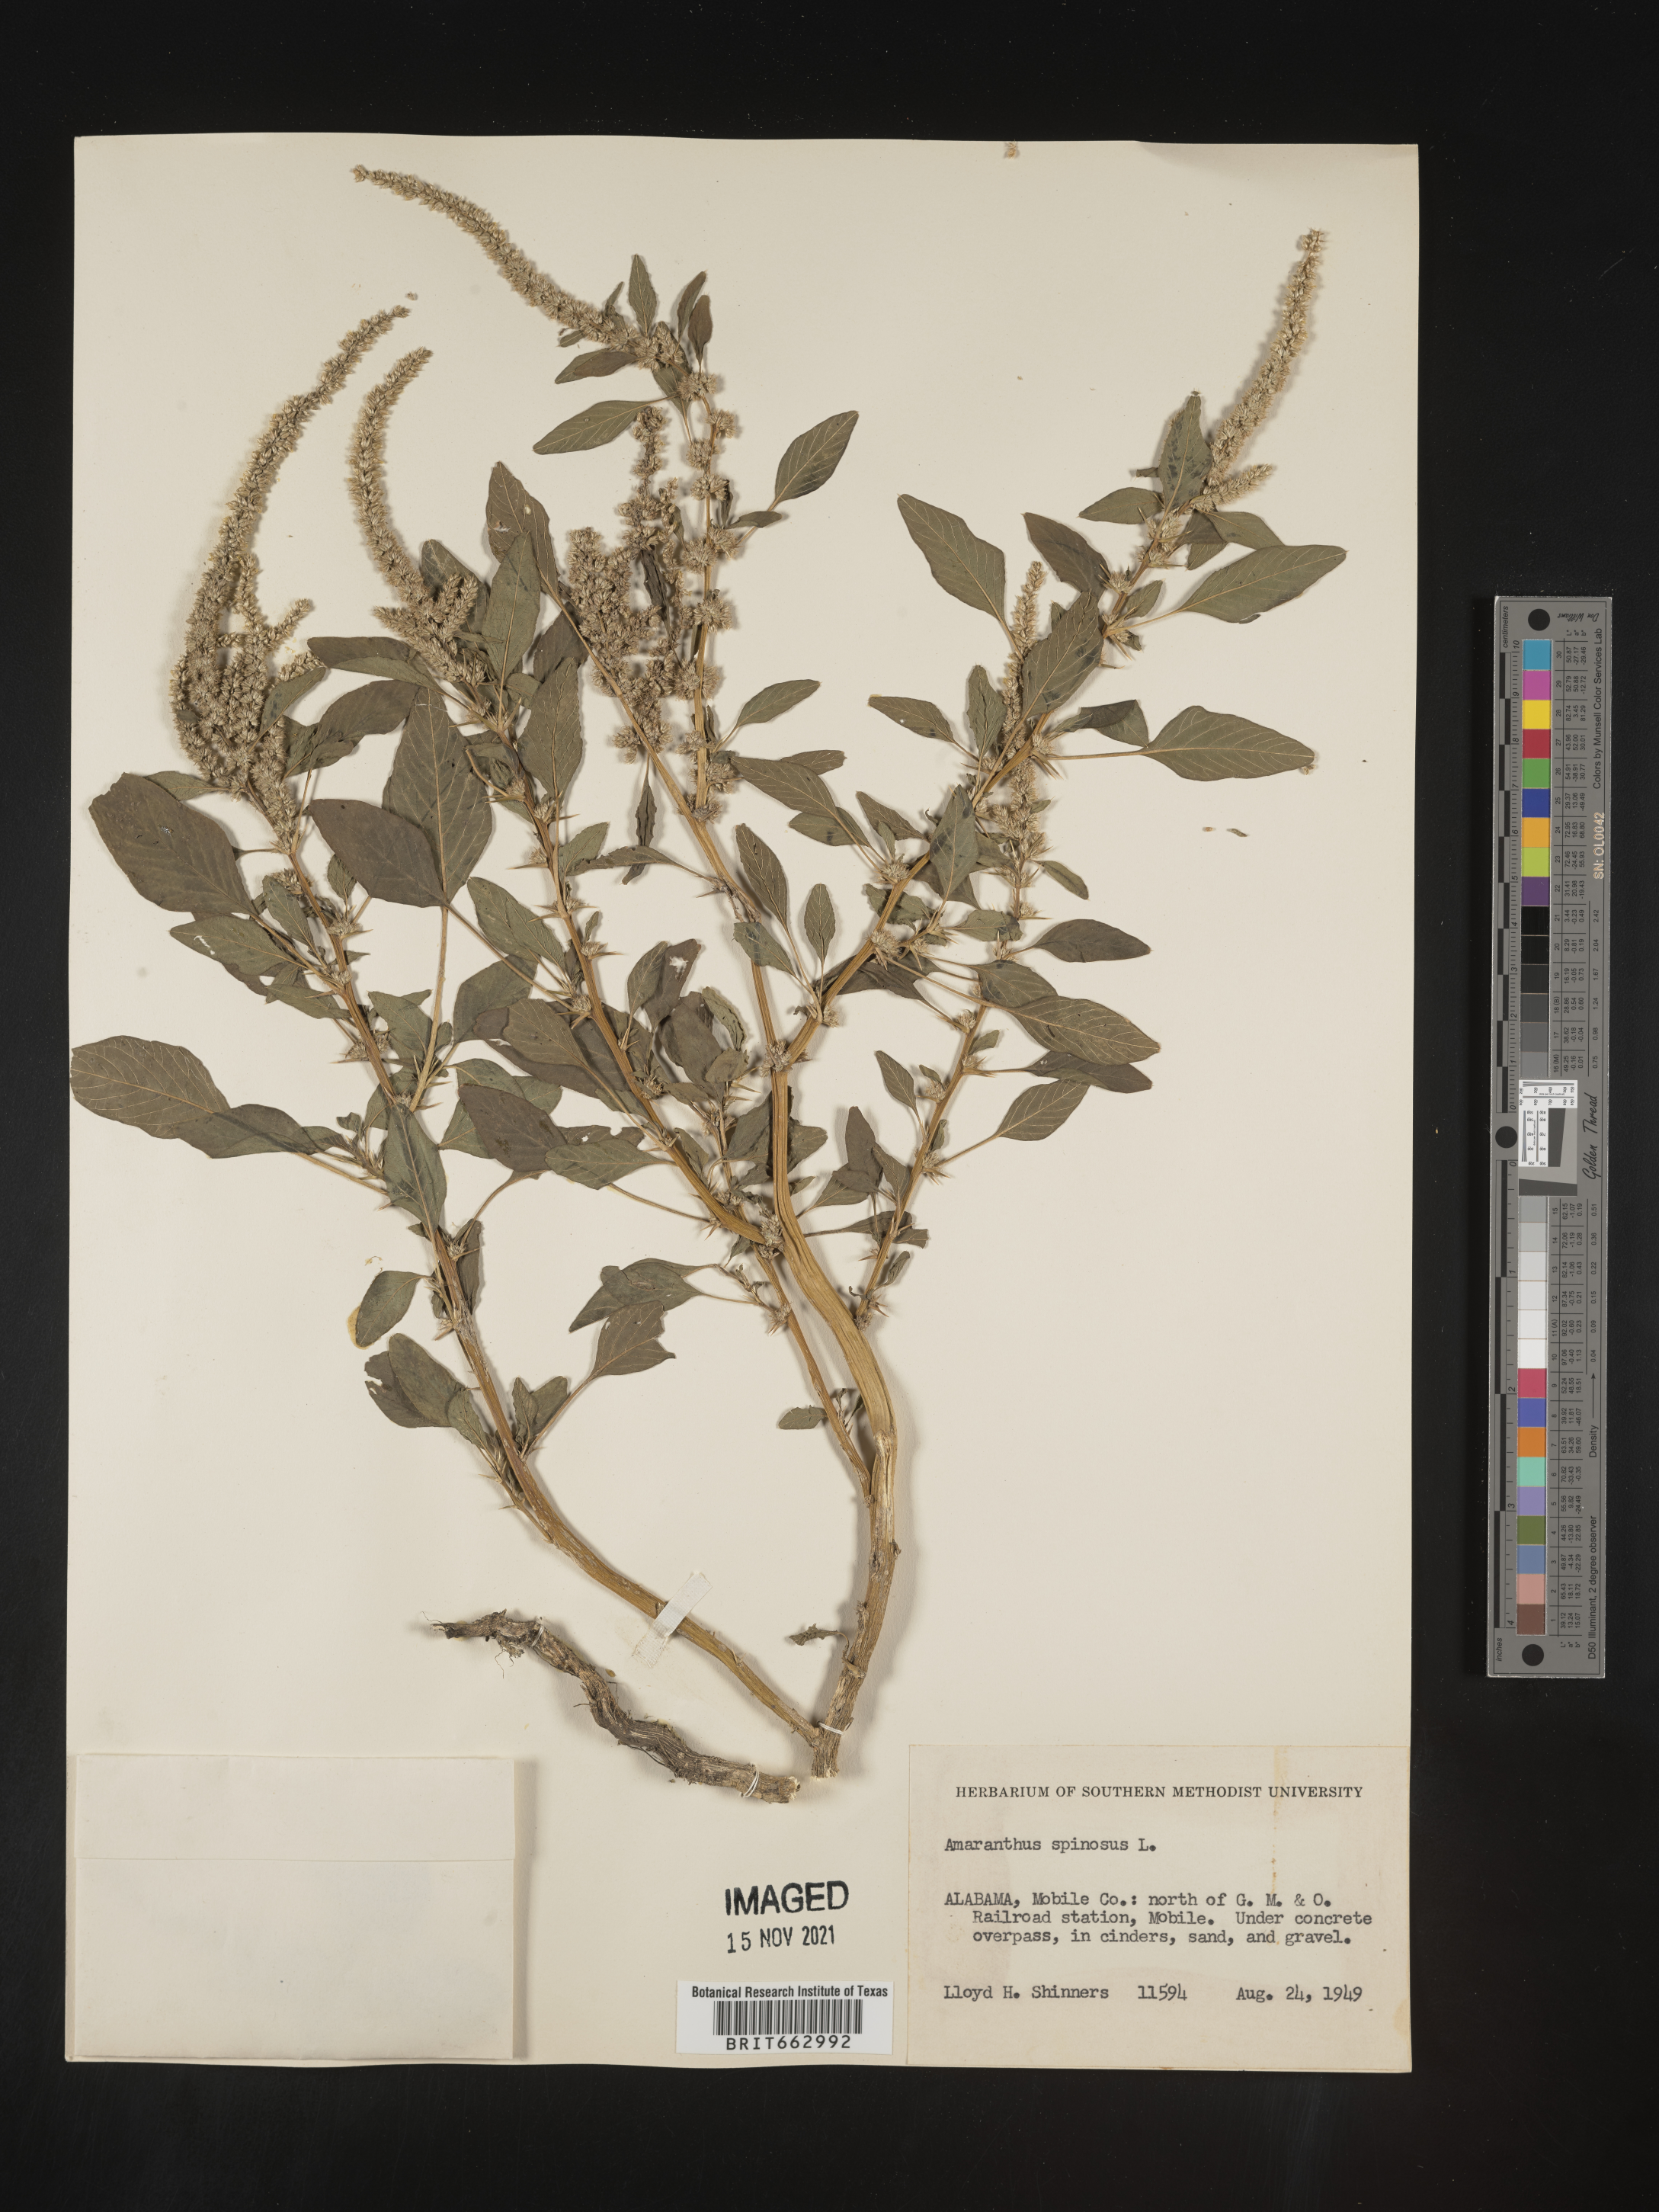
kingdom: Plantae
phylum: Tracheophyta
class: Magnoliopsida
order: Caryophyllales
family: Amaranthaceae
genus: Amaranthus
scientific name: Amaranthus spinosus
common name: Spiny amaranth
